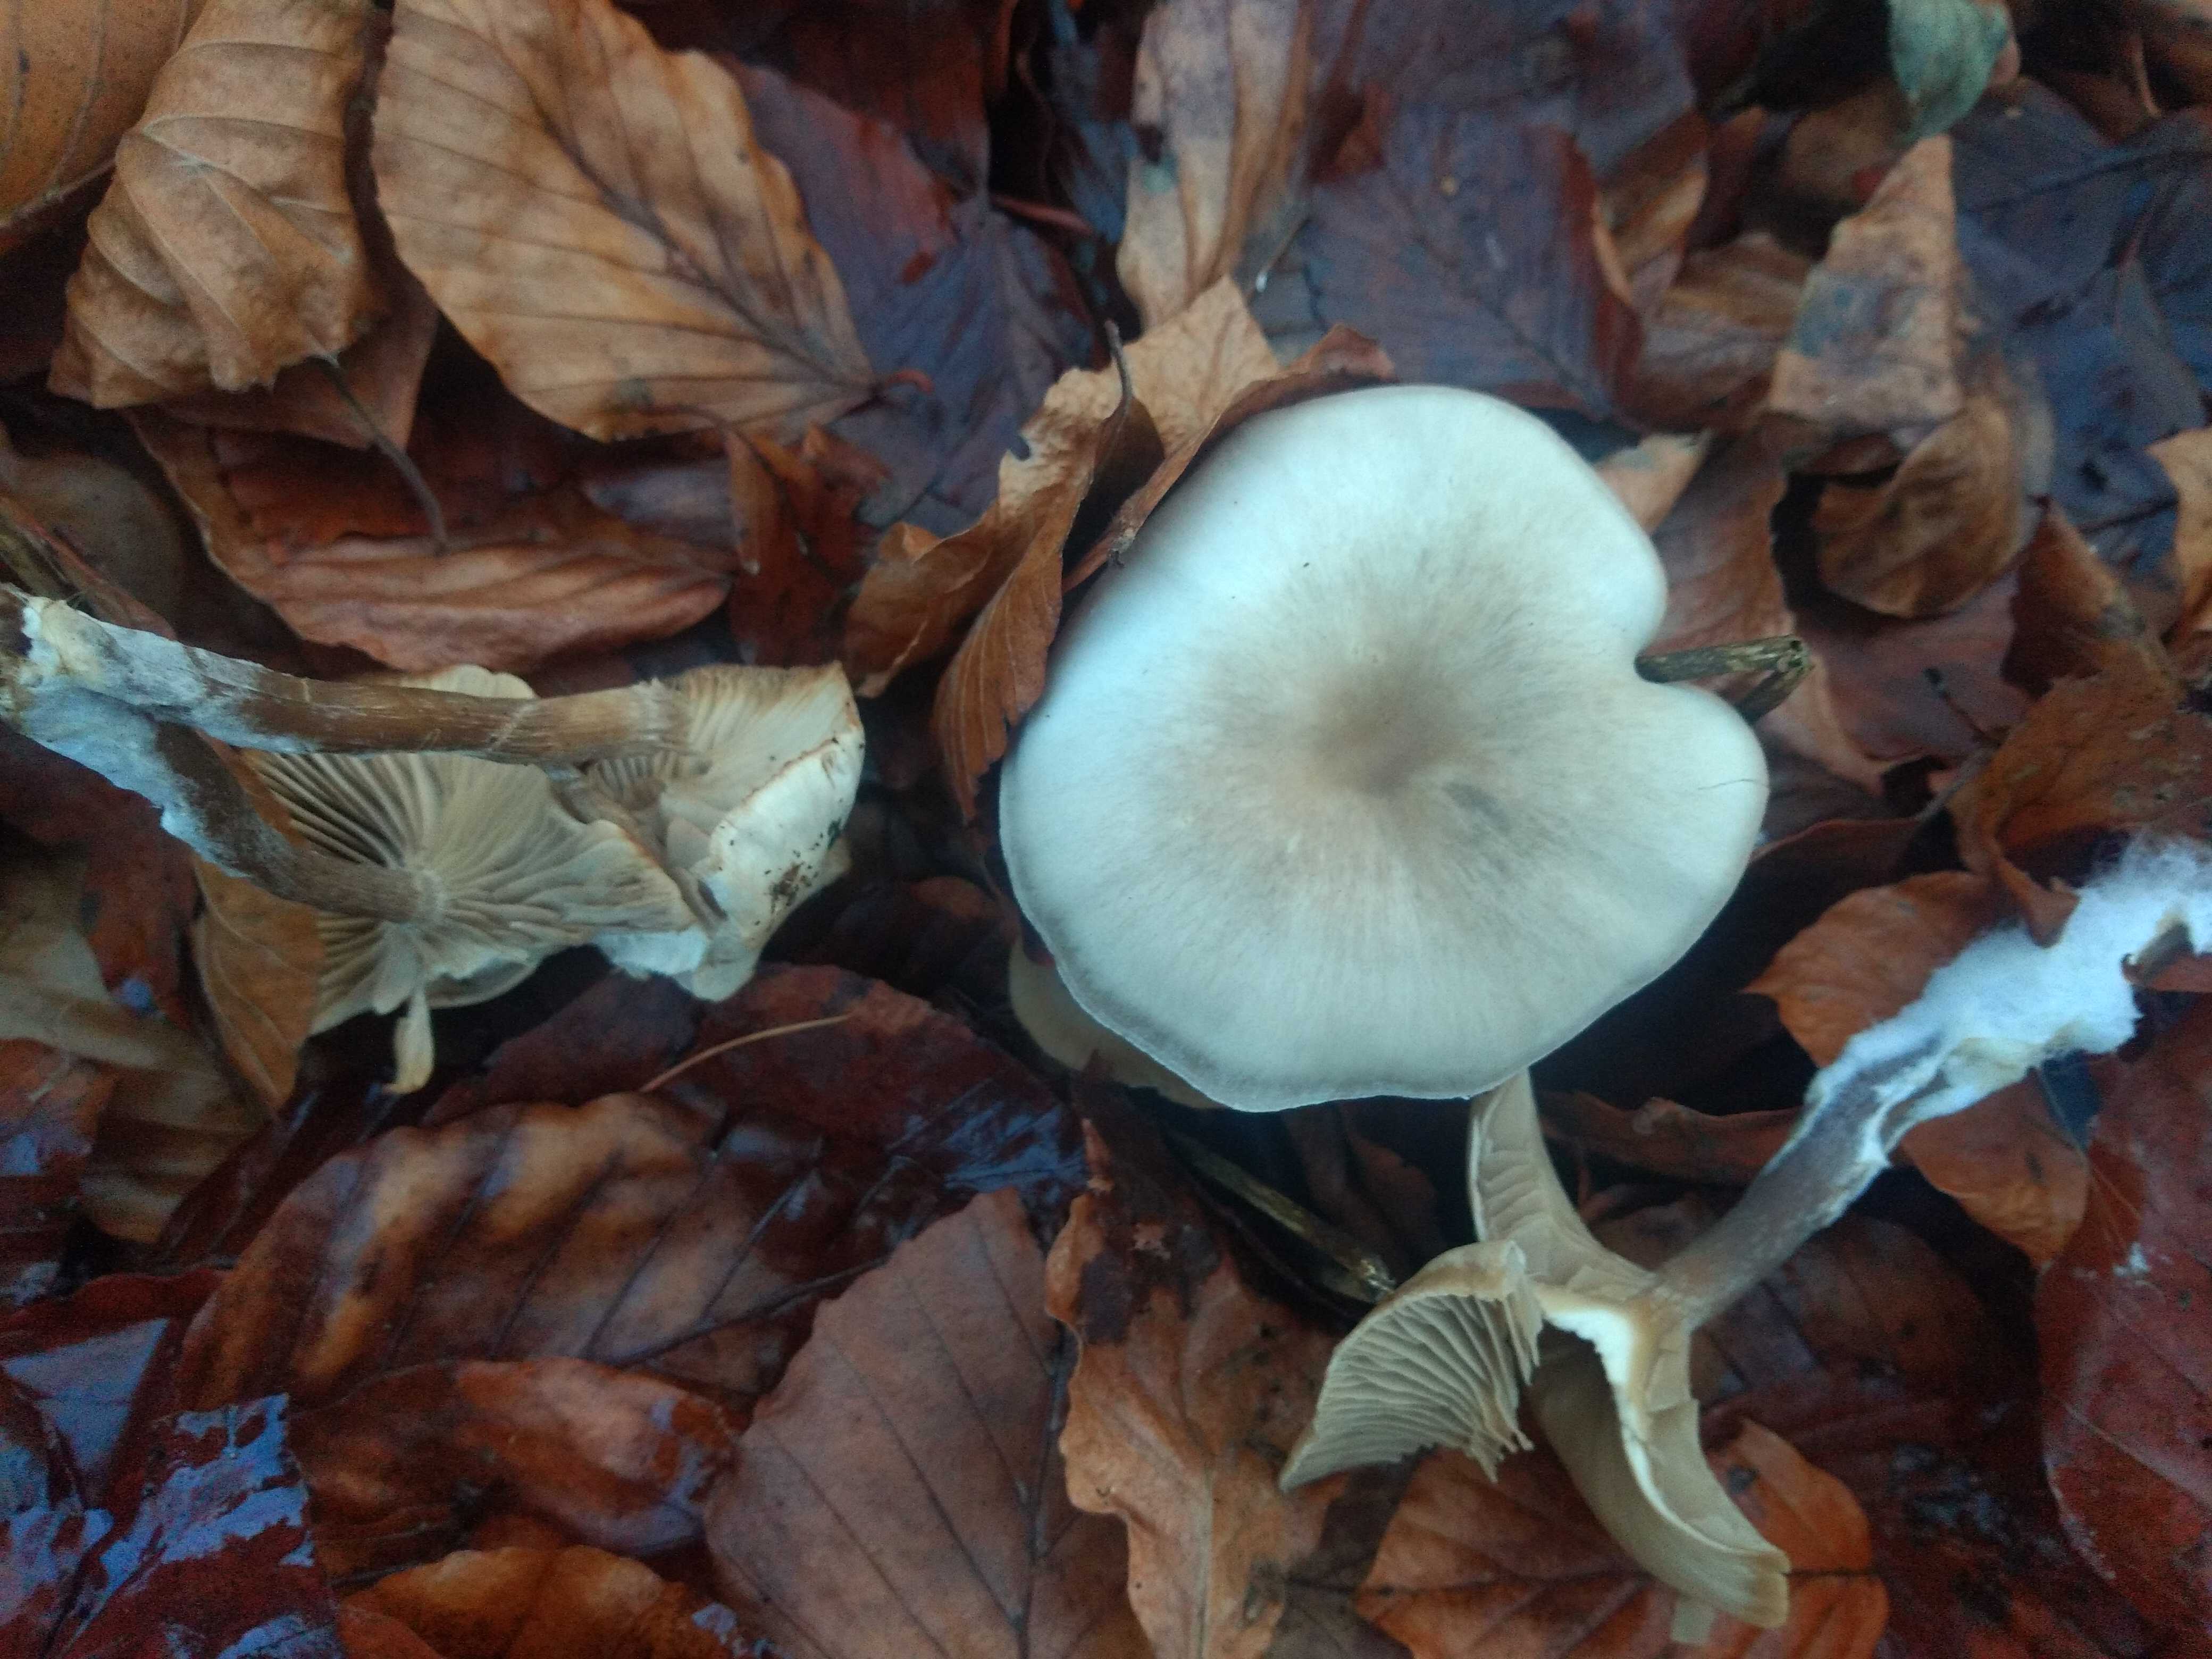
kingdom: Fungi
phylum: Basidiomycota
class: Agaricomycetes
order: Agaricales
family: Tricholomataceae
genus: Clitocybe
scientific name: Clitocybe odora
